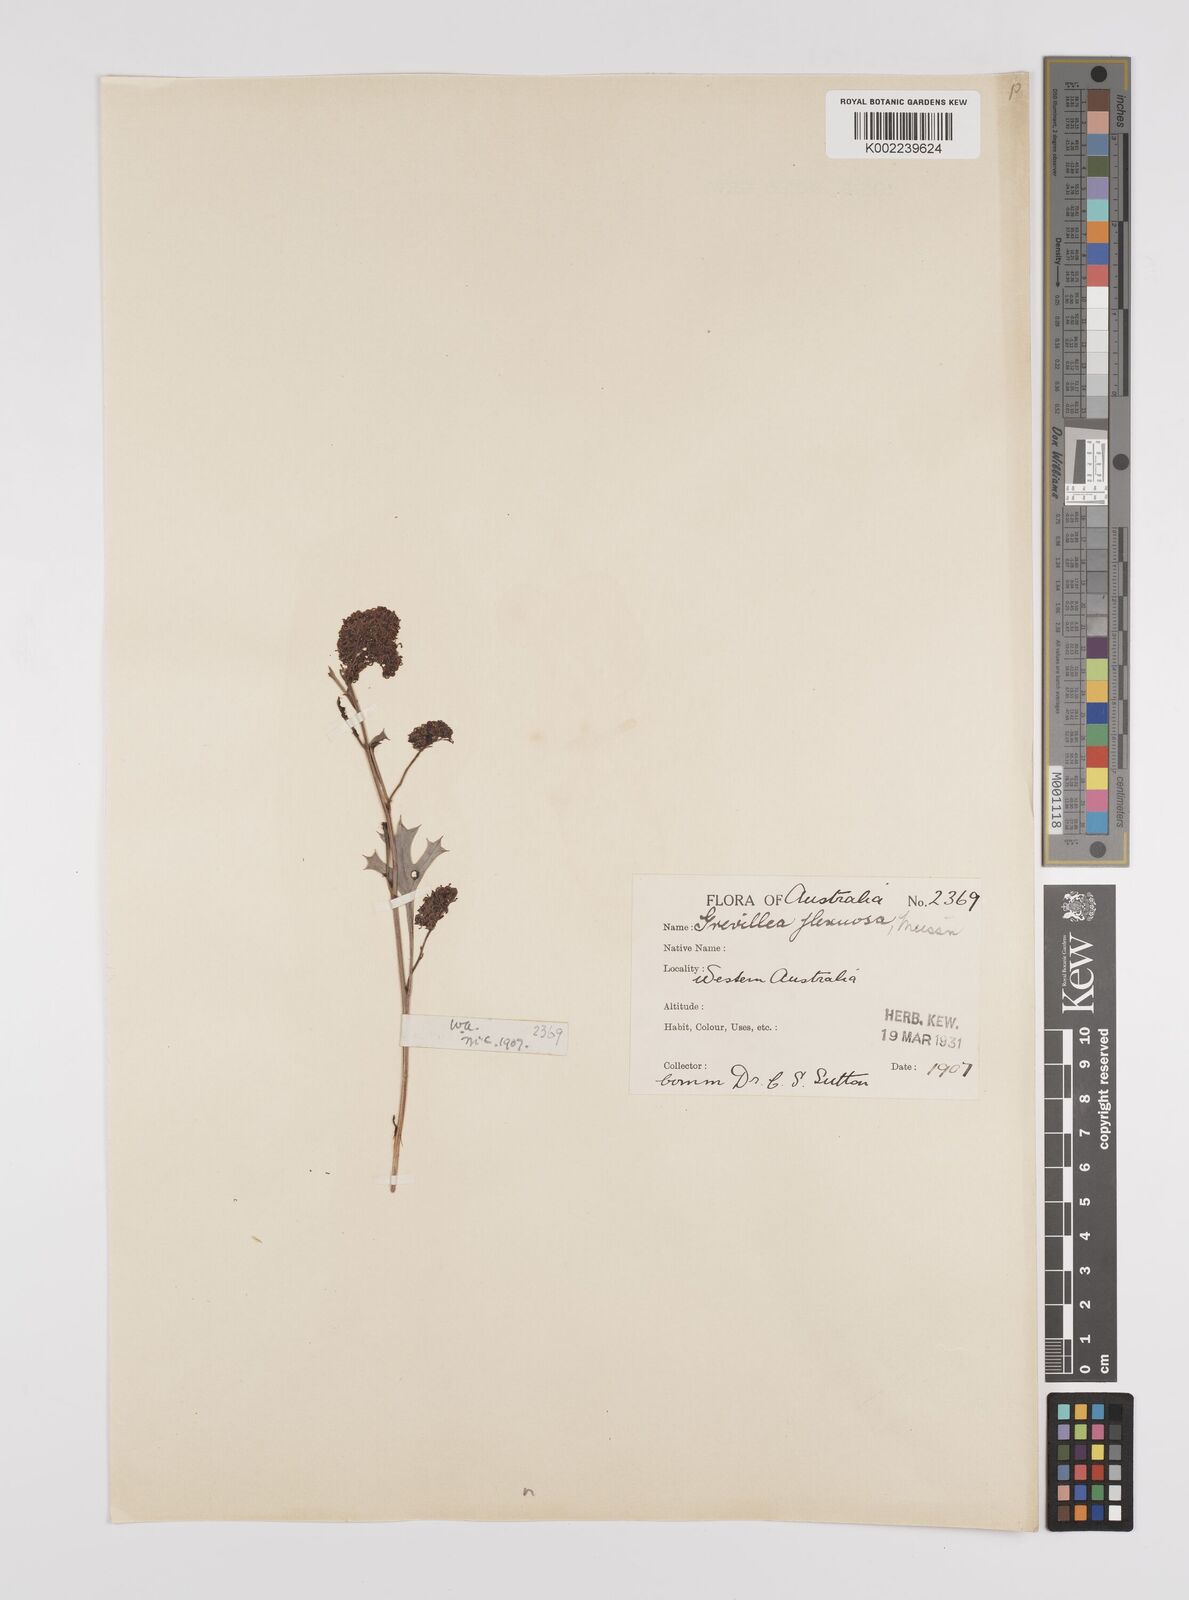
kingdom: Plantae
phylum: Tracheophyta
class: Magnoliopsida
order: Proteales
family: Proteaceae
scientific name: Proteaceae
